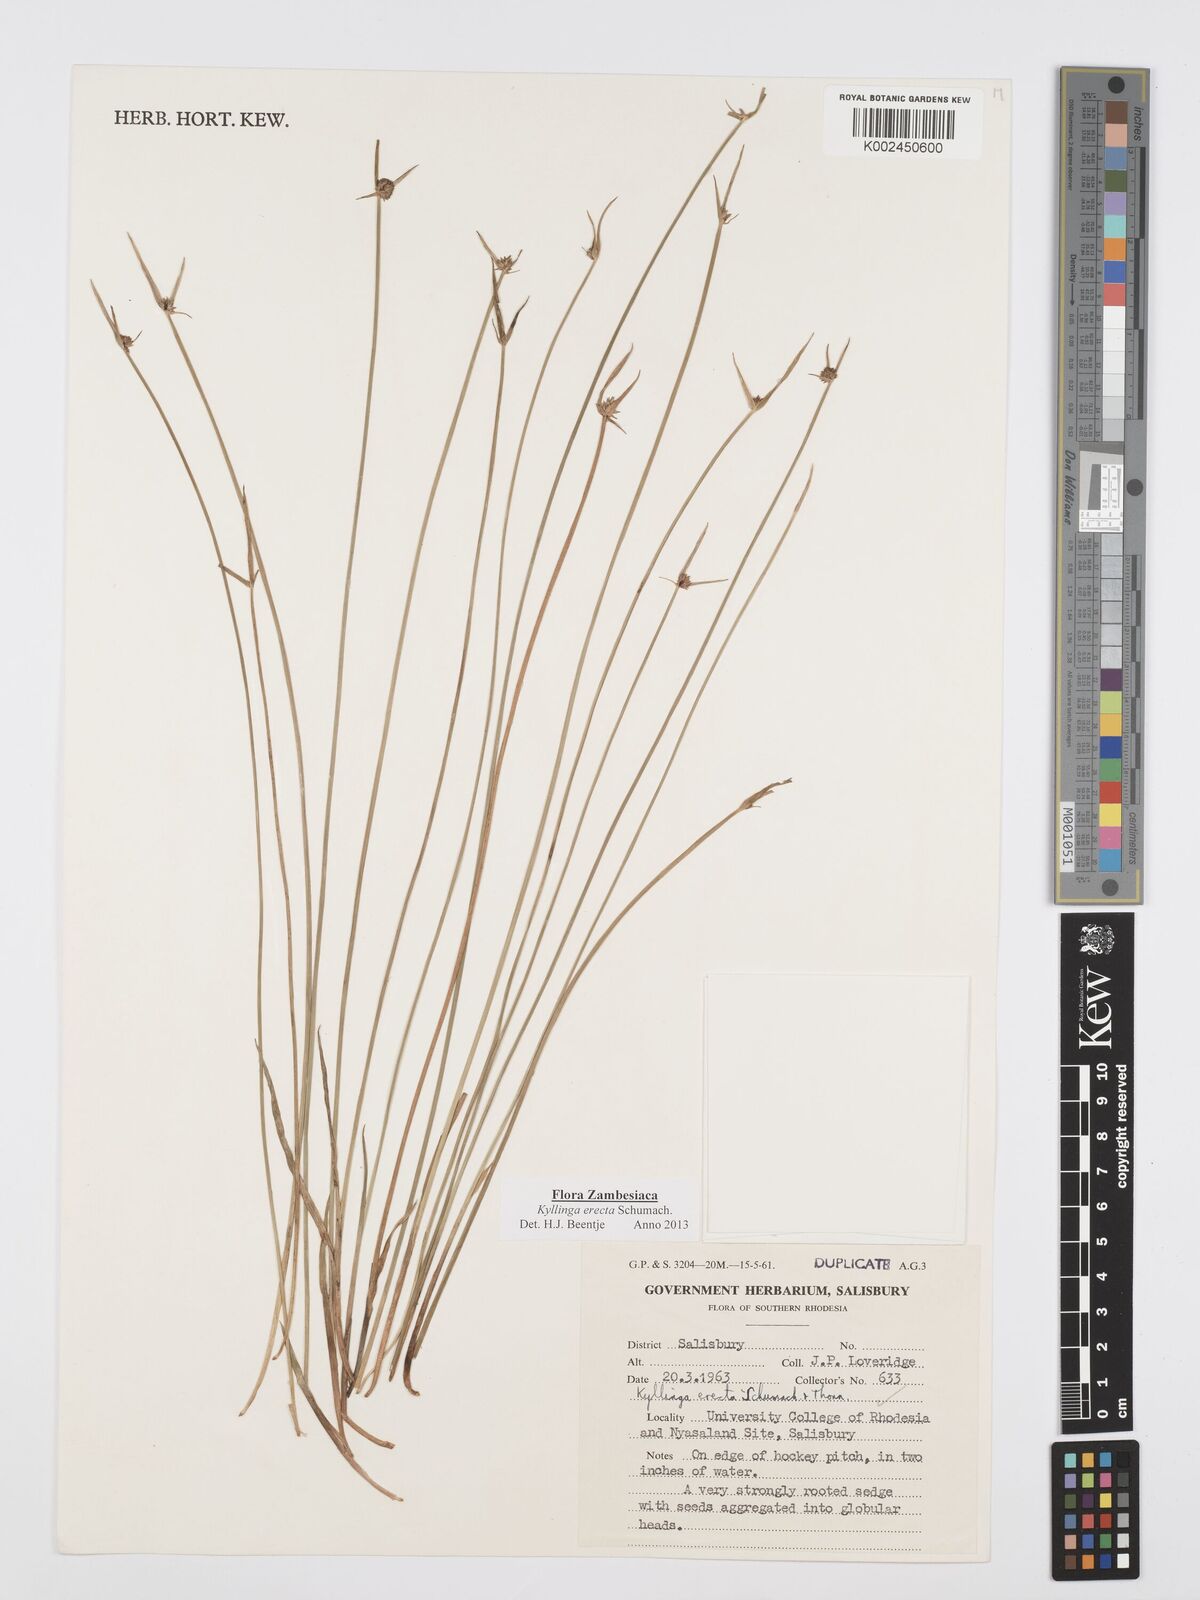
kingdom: Plantae
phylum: Tracheophyta
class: Liliopsida
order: Poales
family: Cyperaceae
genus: Cyperus
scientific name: Cyperus erectus
